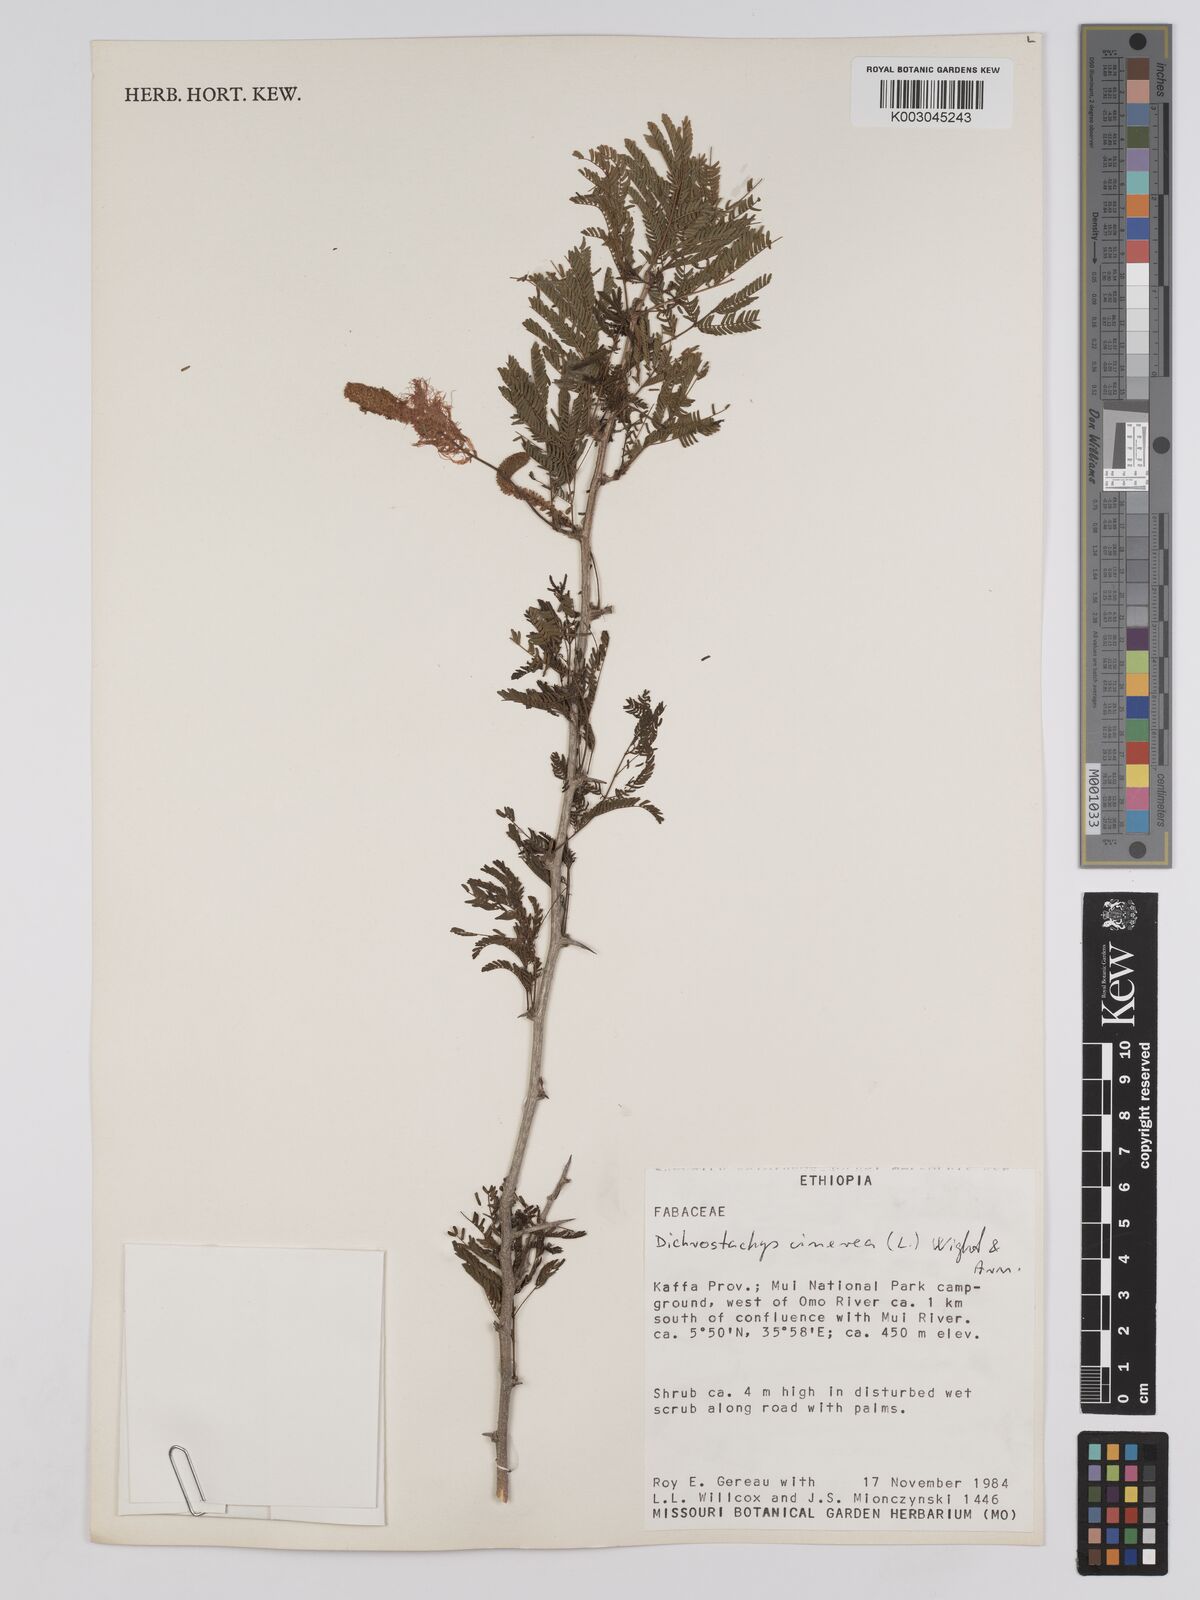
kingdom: Plantae
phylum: Tracheophyta
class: Magnoliopsida
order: Fabales
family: Fabaceae
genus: Dichrostachys
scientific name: Dichrostachys cinerea
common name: Sicklebush
